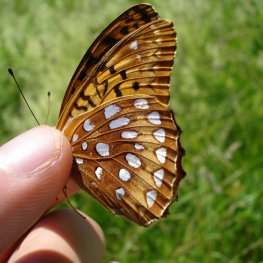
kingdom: Animalia
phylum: Arthropoda
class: Insecta
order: Lepidoptera
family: Nymphalidae
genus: Speyeria
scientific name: Speyeria aphrodite
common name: Aphrodite Fritillary
